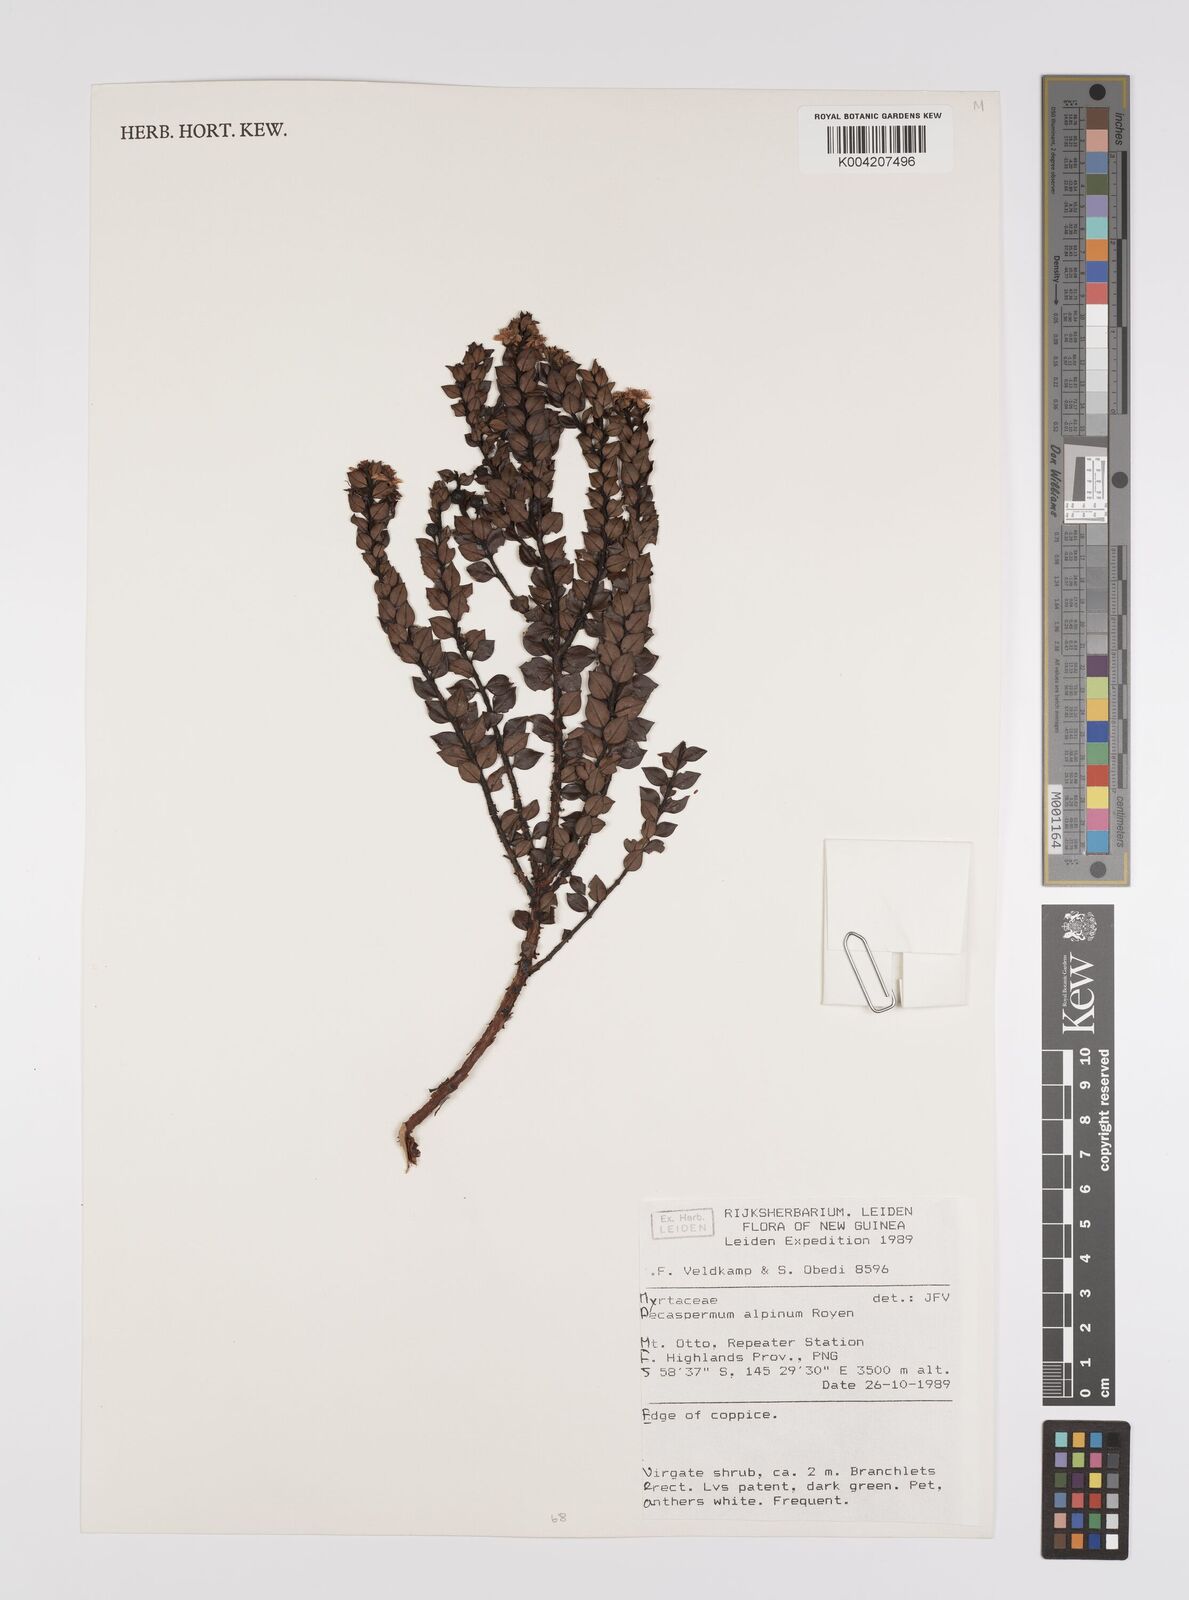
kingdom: Plantae
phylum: Tracheophyta
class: Magnoliopsida
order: Myrtales
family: Myrtaceae
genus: Decaspermum
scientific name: Decaspermum alpinum
